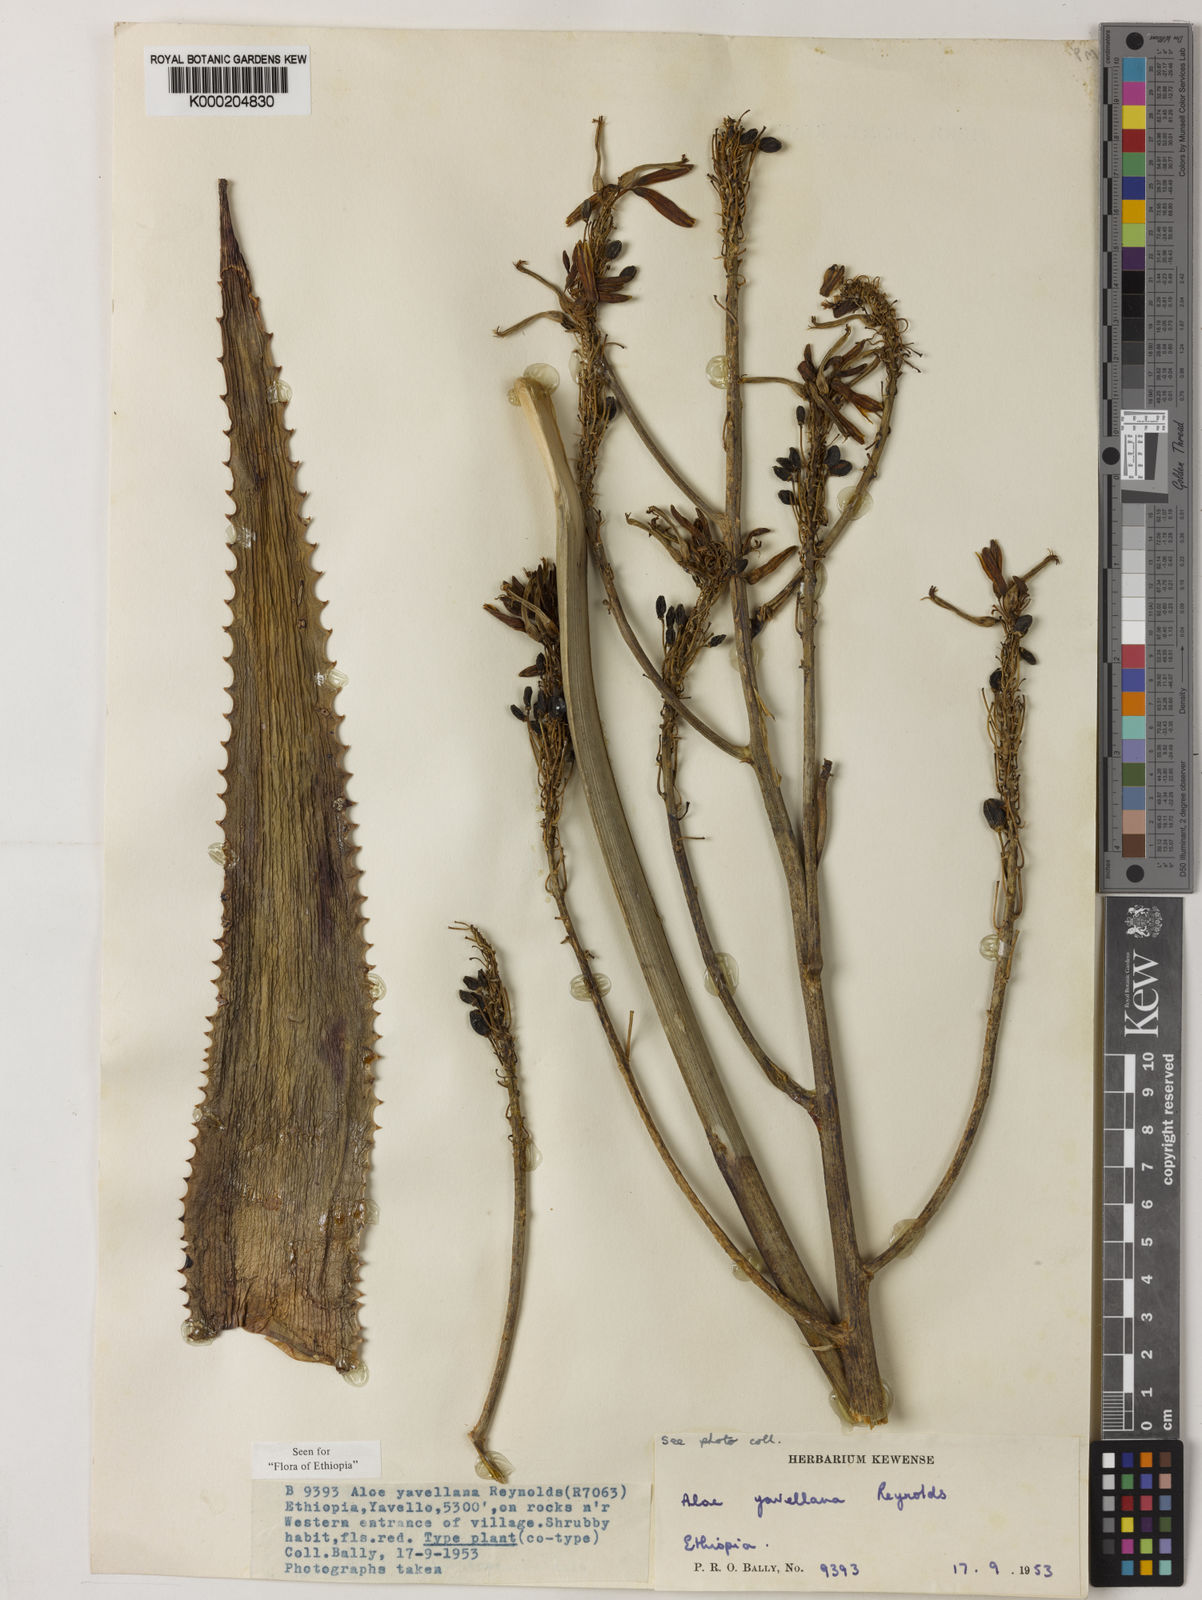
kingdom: Plantae
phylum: Tracheophyta
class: Liliopsida
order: Asparagales
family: Asphodelaceae
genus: Aloe
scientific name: Aloe yavellana
